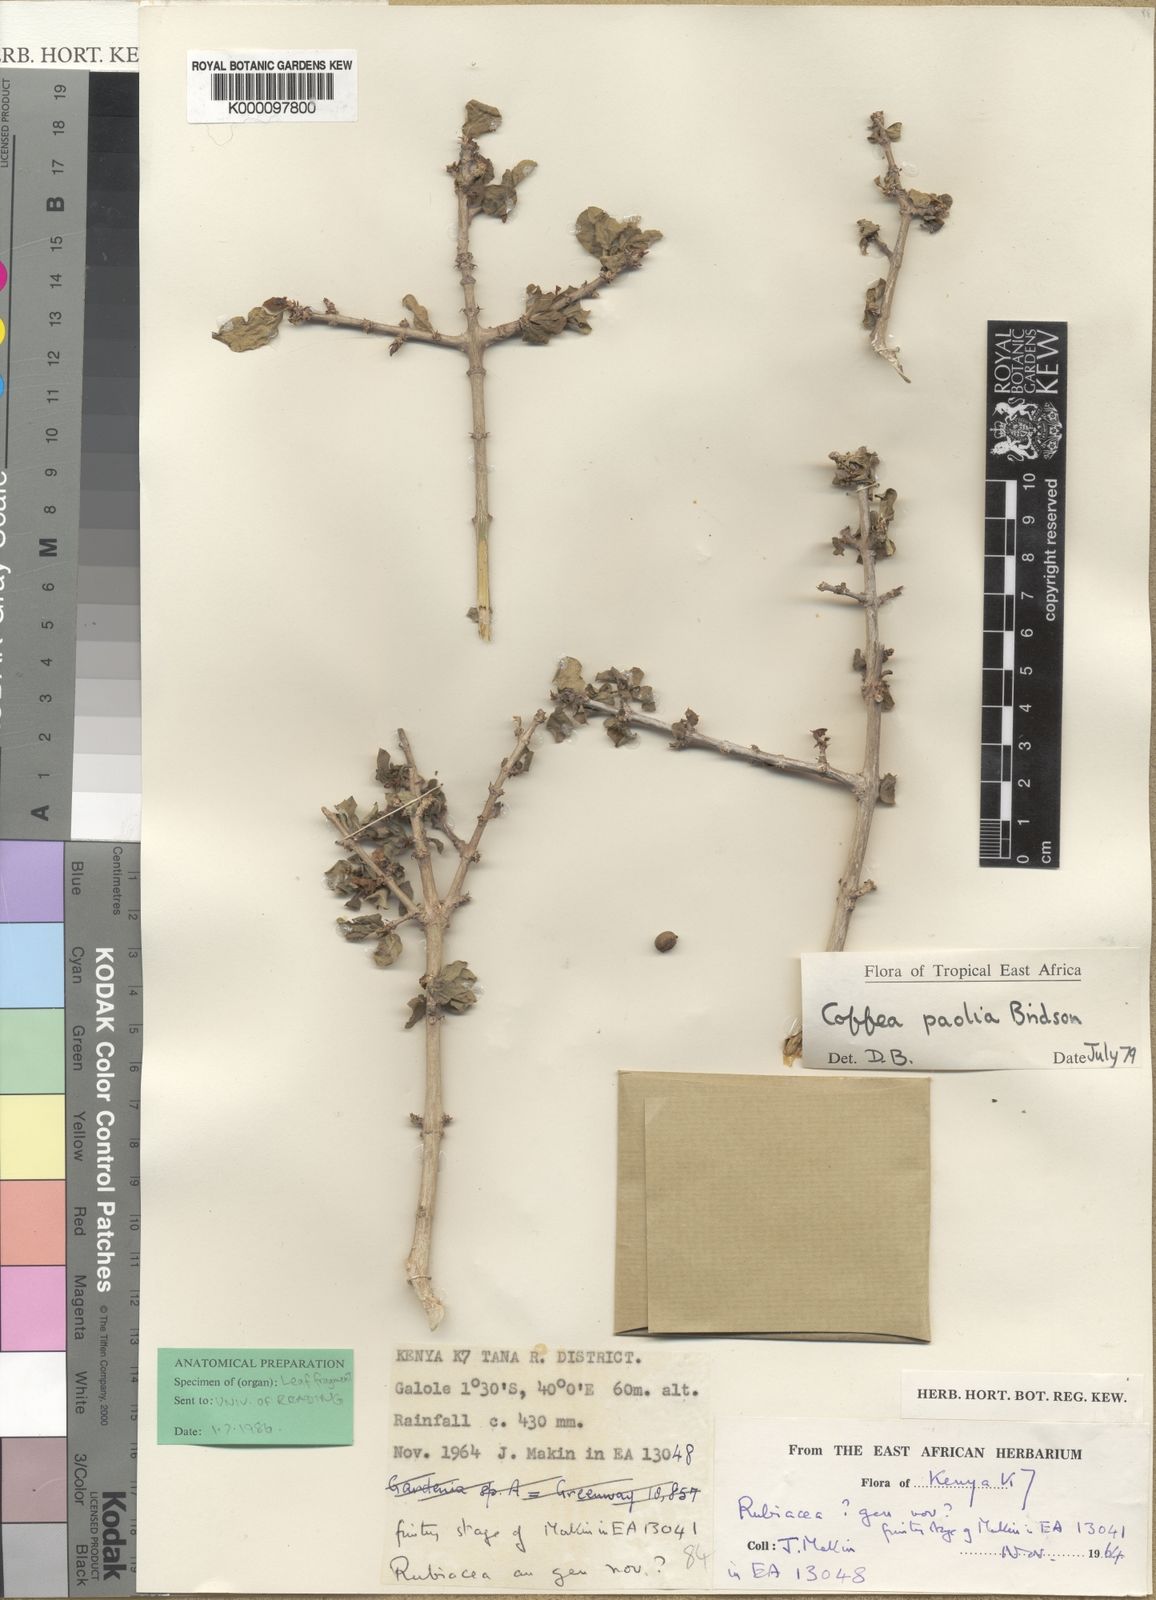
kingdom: Plantae
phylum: Tracheophyta
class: Magnoliopsida
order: Gentianales
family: Rubiaceae
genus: Coffea
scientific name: Coffea rhamnifolia
